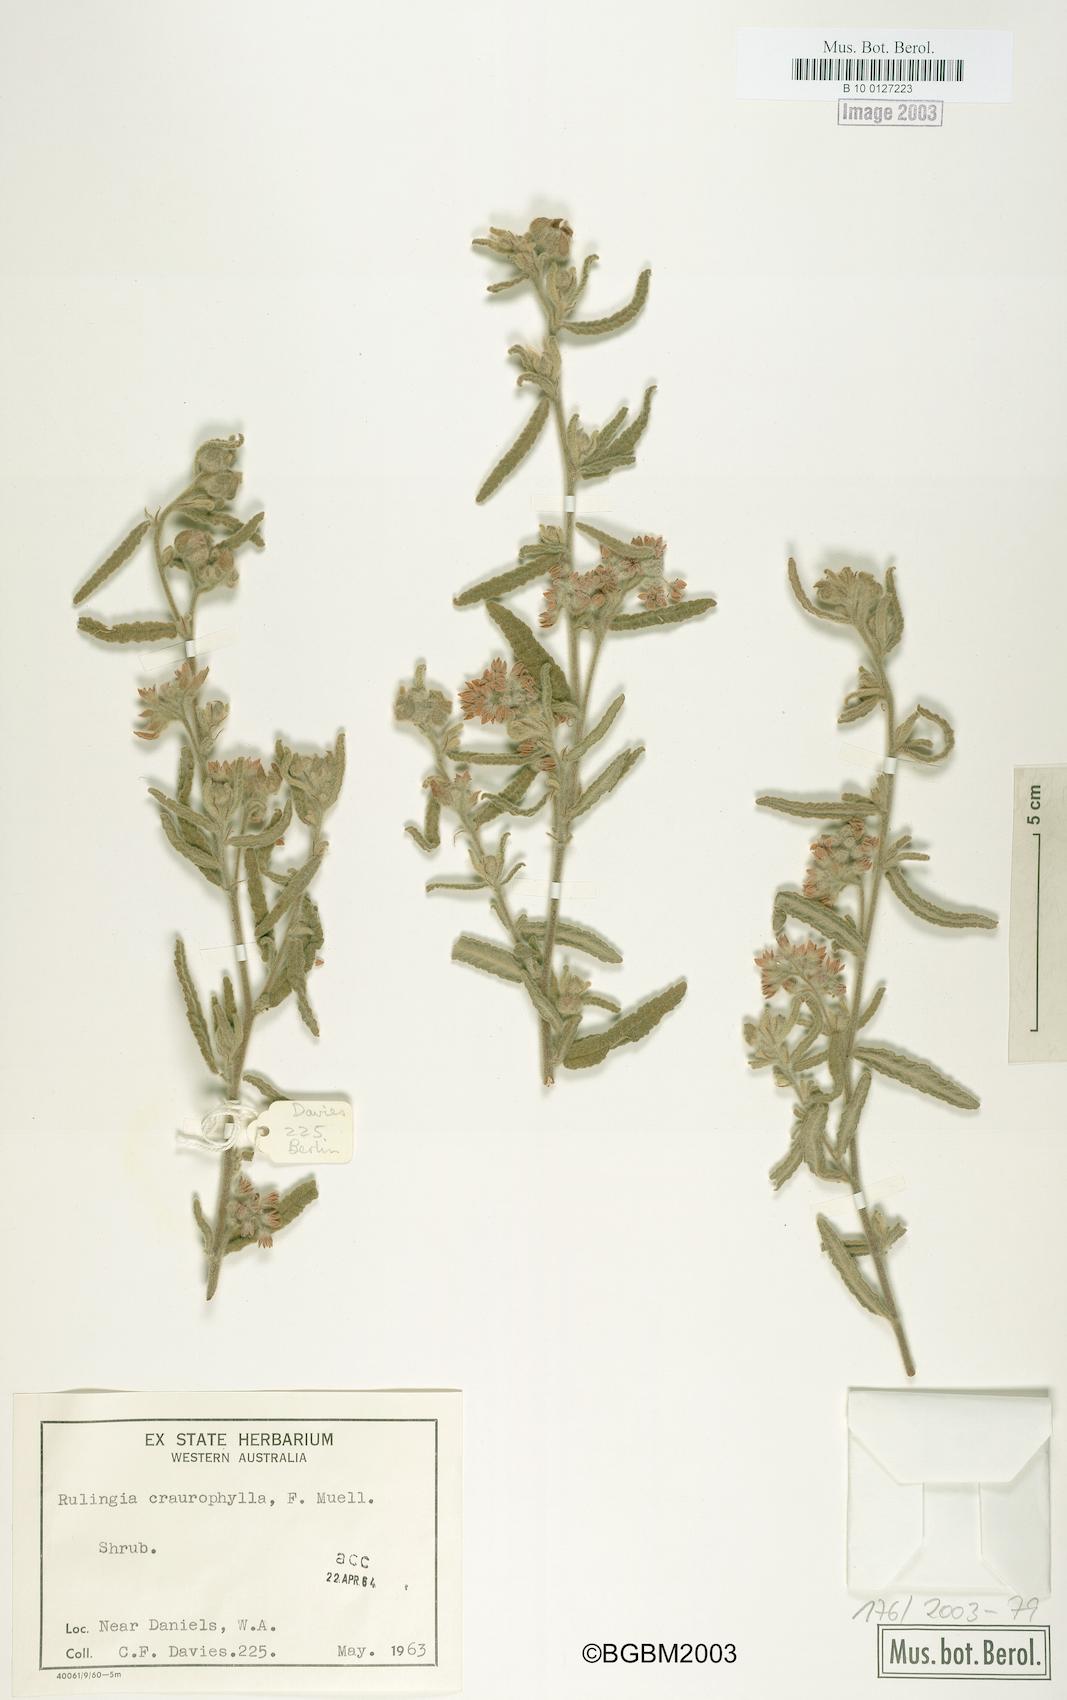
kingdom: Plantae
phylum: Tracheophyta
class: Magnoliopsida
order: Malvales
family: Malvaceae
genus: Commersonia
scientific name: Commersonia craurophylla
